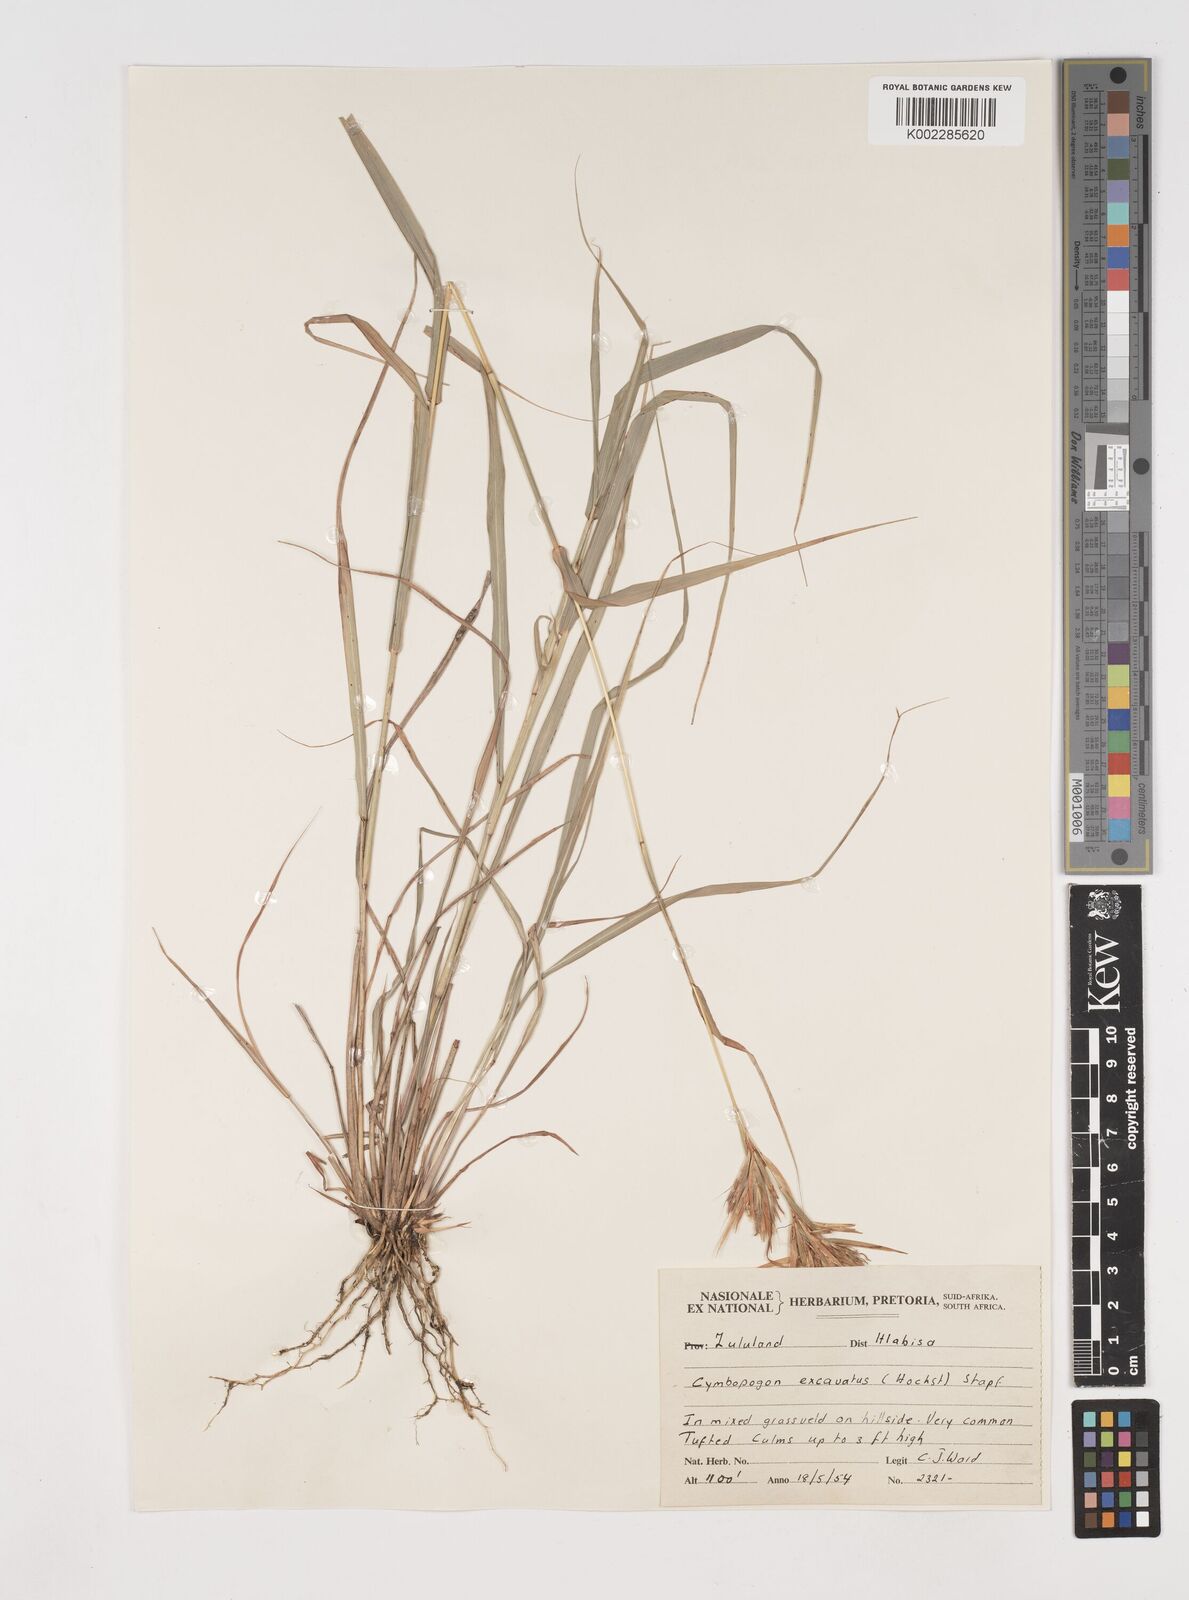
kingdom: Plantae
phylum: Tracheophyta
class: Liliopsida
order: Poales
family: Poaceae
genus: Cymbopogon
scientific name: Cymbopogon caesius
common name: Kachi grass
